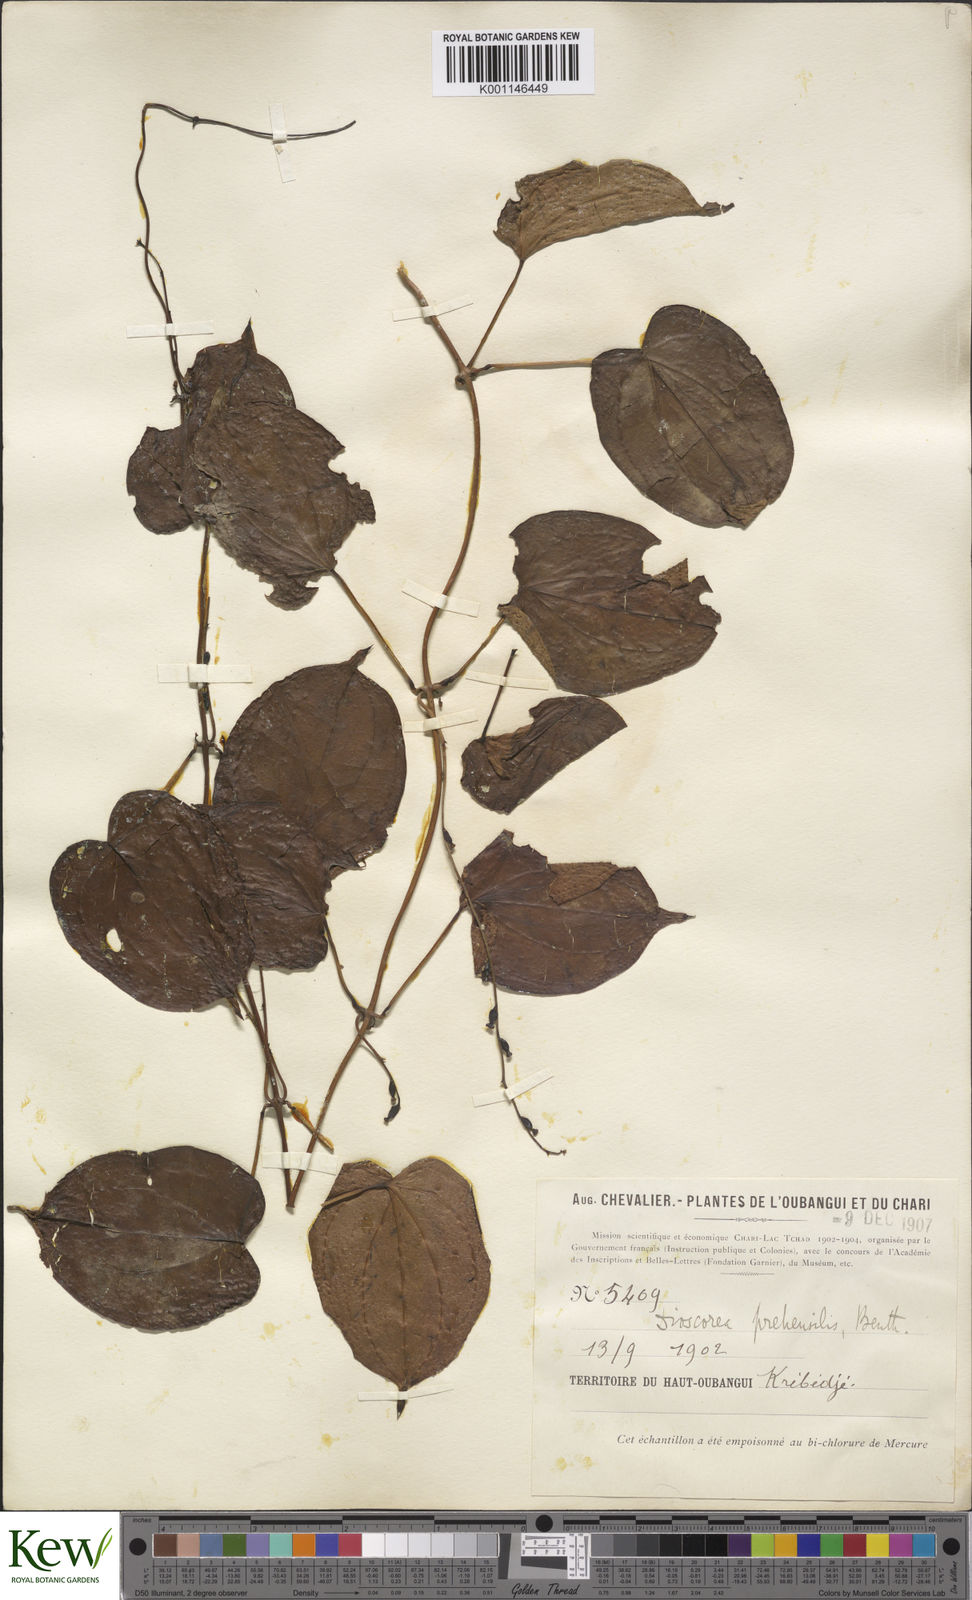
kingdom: Plantae
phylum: Tracheophyta
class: Liliopsida
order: Dioscoreales
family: Dioscoreaceae
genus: Dioscorea
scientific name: Dioscorea praehensilis
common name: Bush yam
